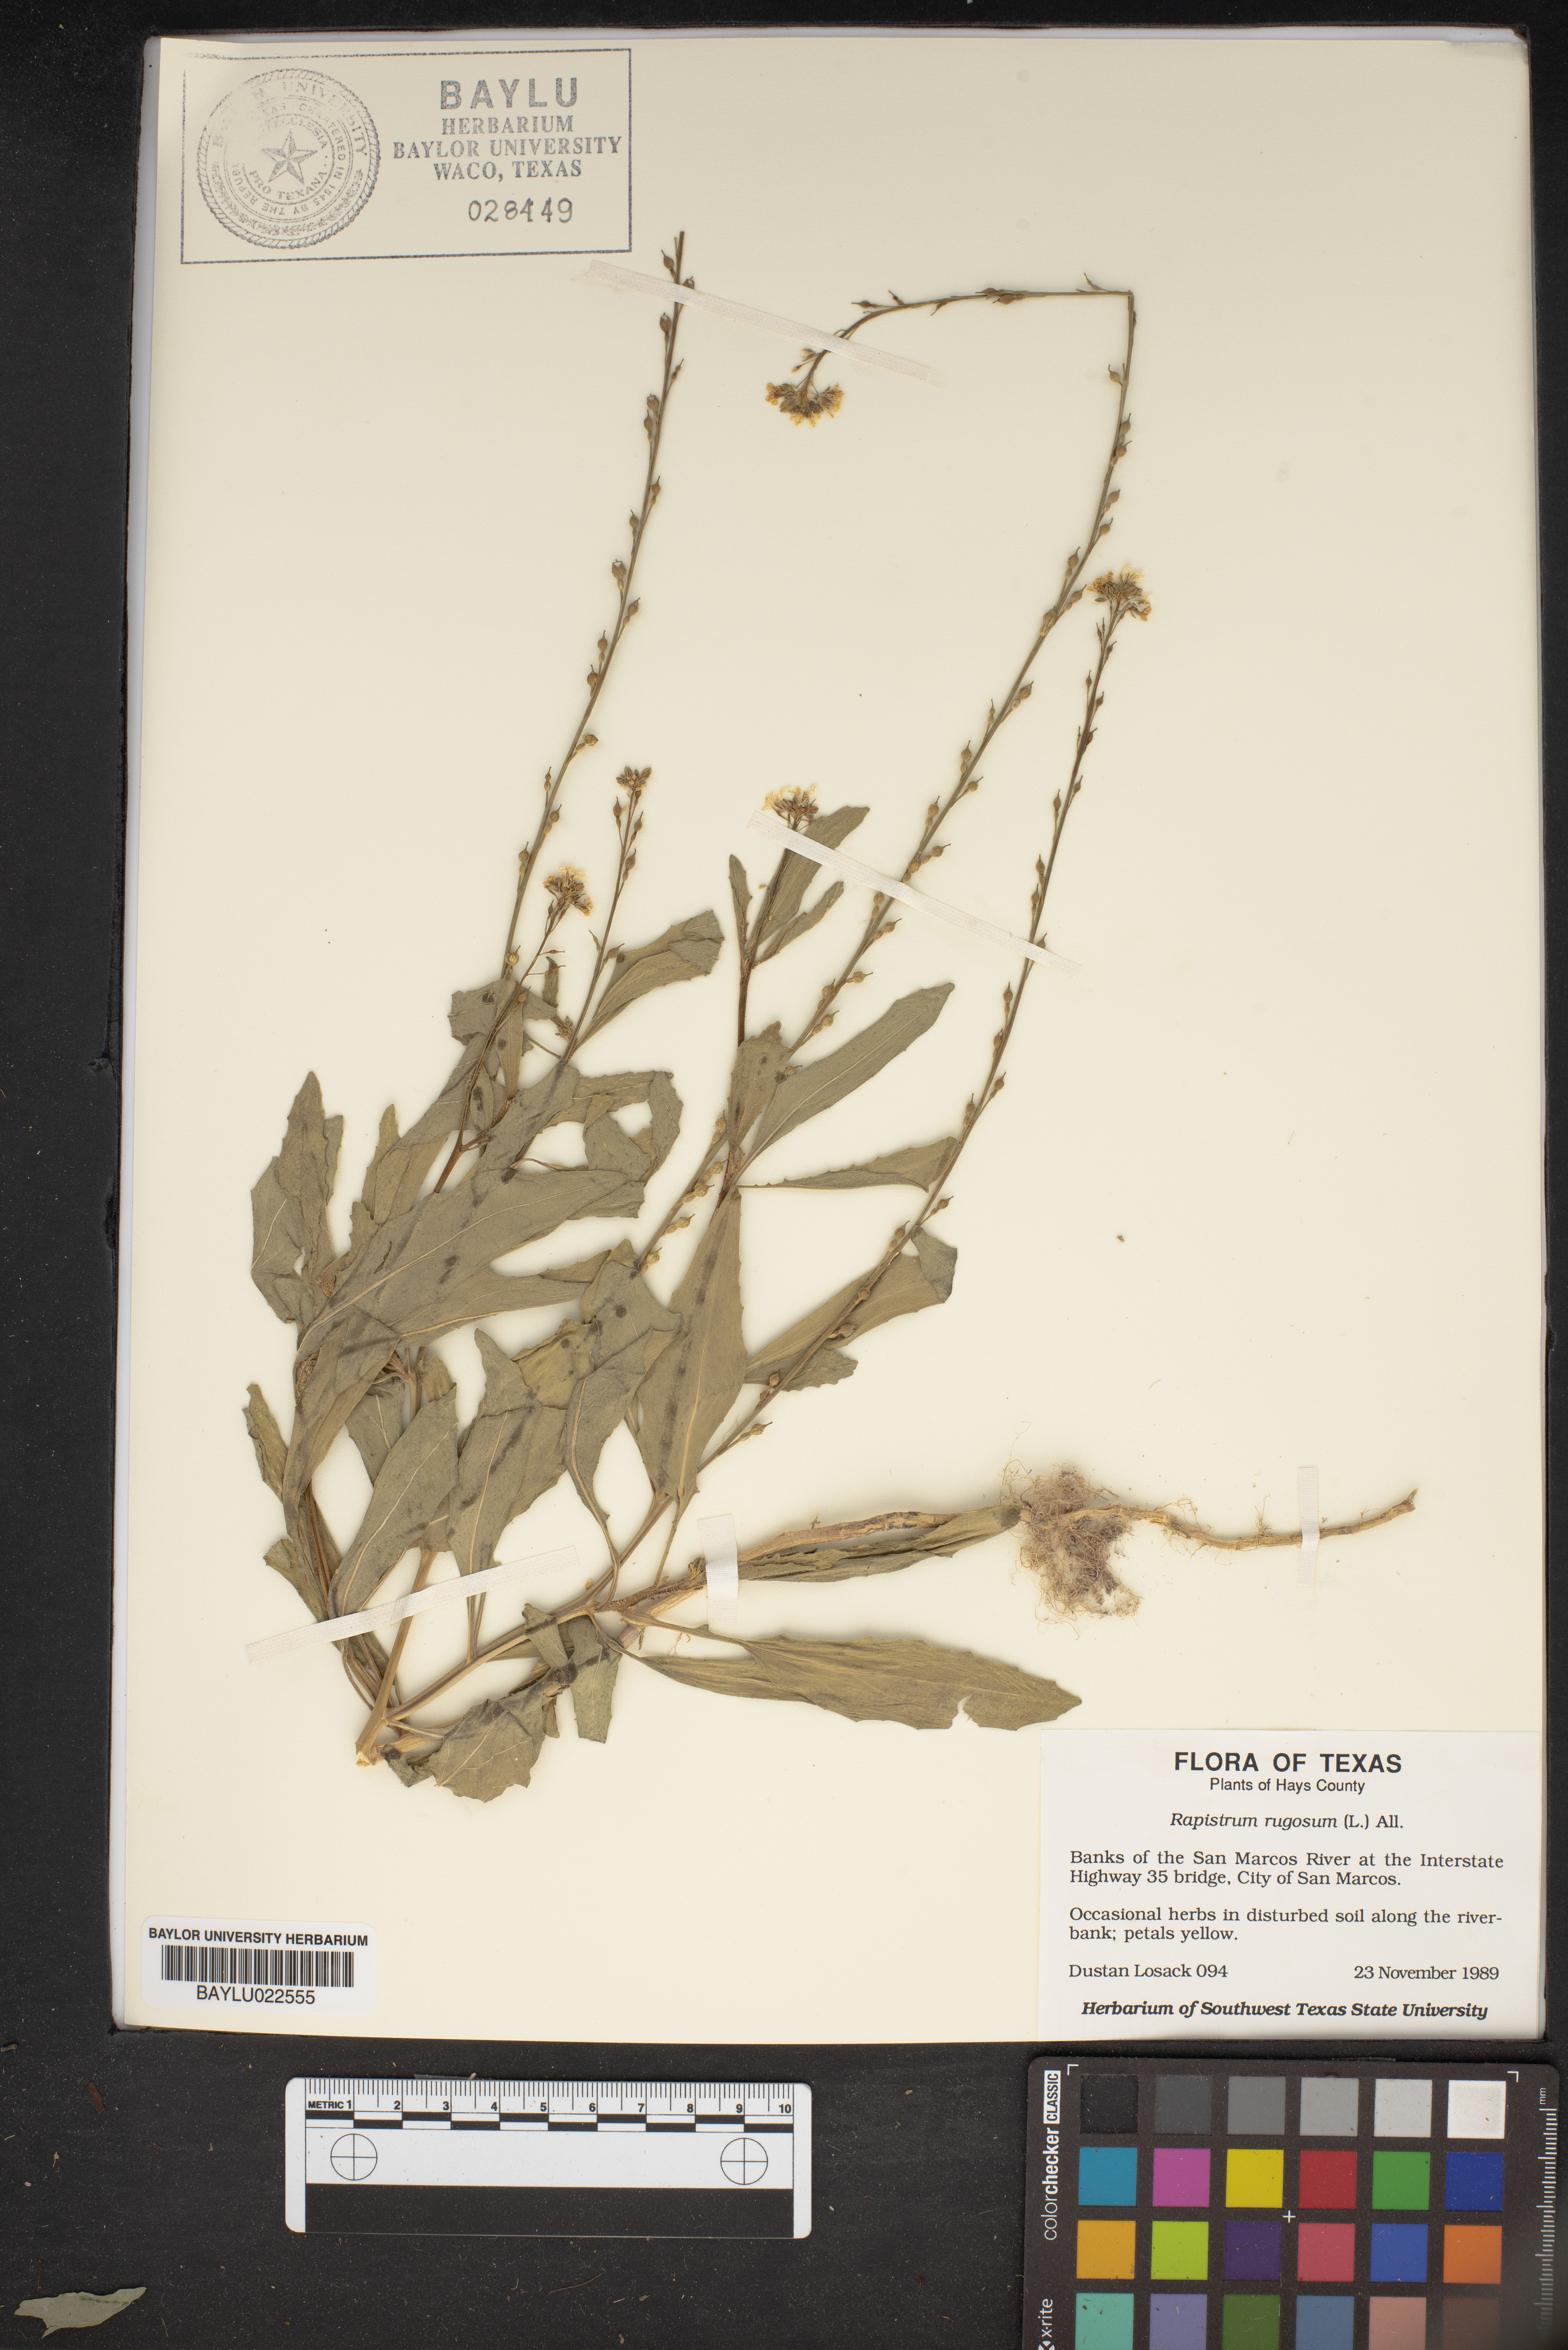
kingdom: Plantae
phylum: Tracheophyta
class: Magnoliopsida
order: Brassicales
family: Brassicaceae
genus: Rapistrum
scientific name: Rapistrum rugosum
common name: Annual bastardcabbage
